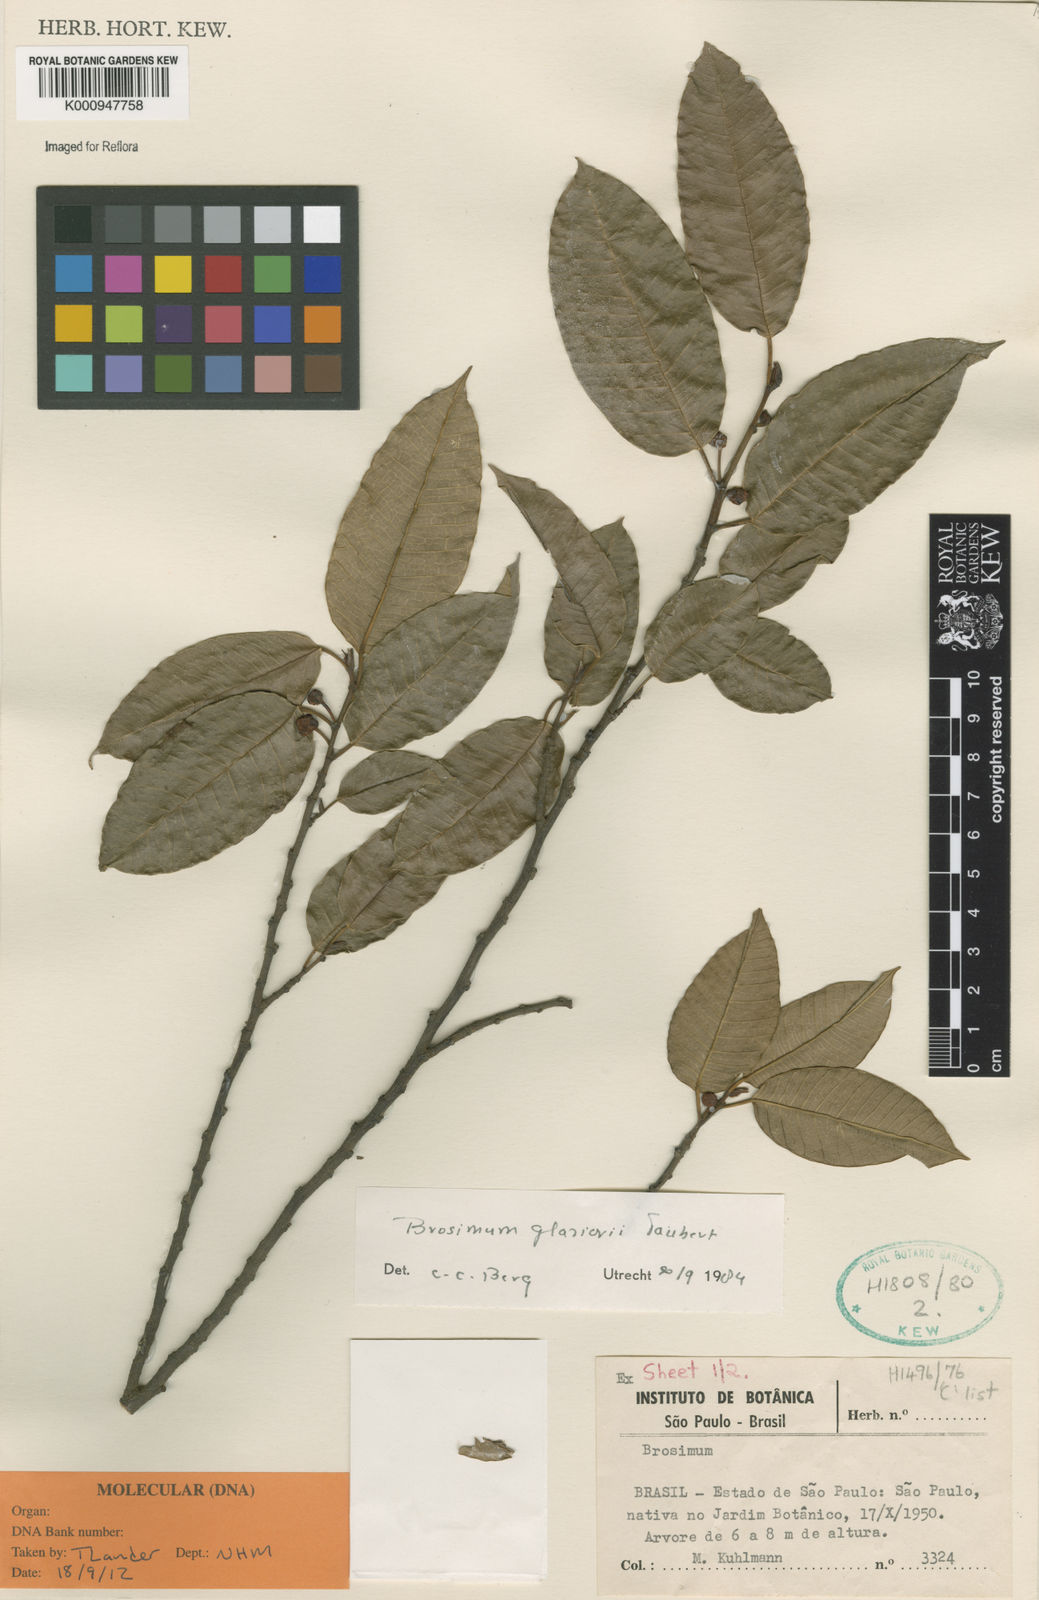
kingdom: Plantae
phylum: Tracheophyta
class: Magnoliopsida
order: Rosales
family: Moraceae
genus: Brosimum
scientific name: Brosimum glaziovii
